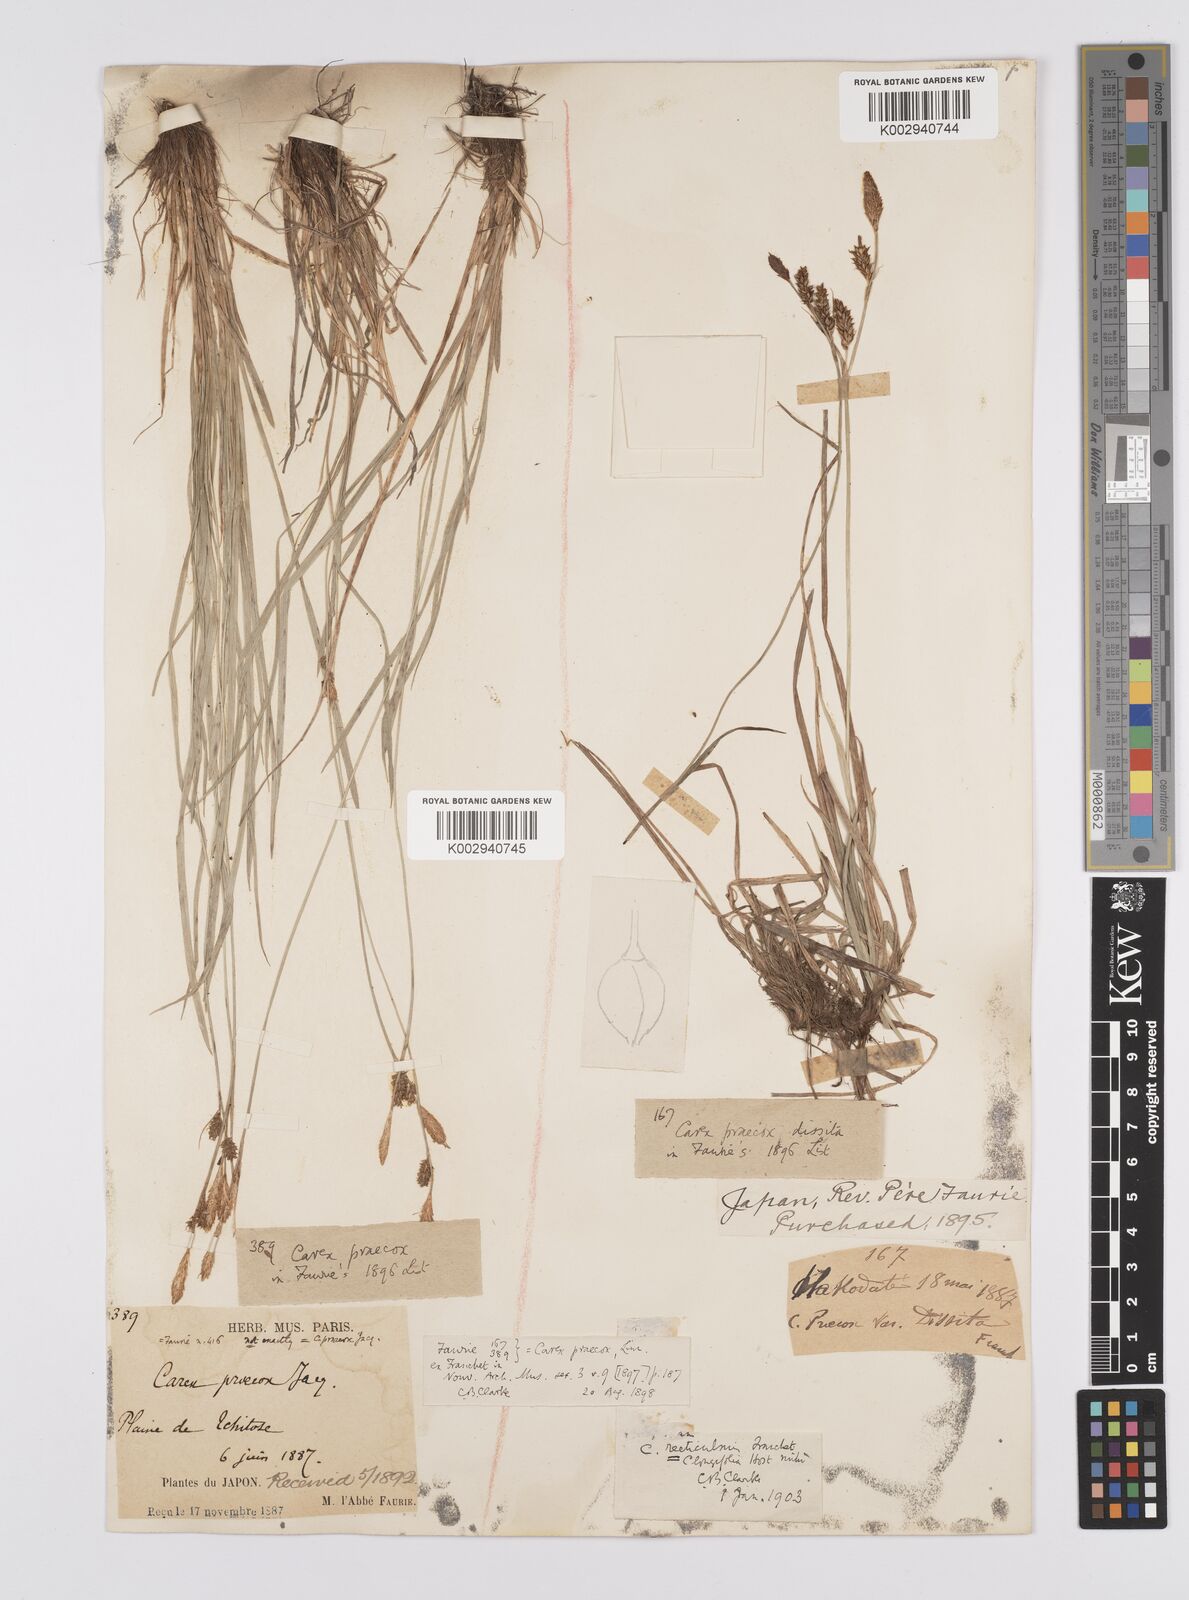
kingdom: Plantae
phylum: Tracheophyta
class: Liliopsida
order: Poales
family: Cyperaceae
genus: Carex
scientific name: Carex umbrosa
